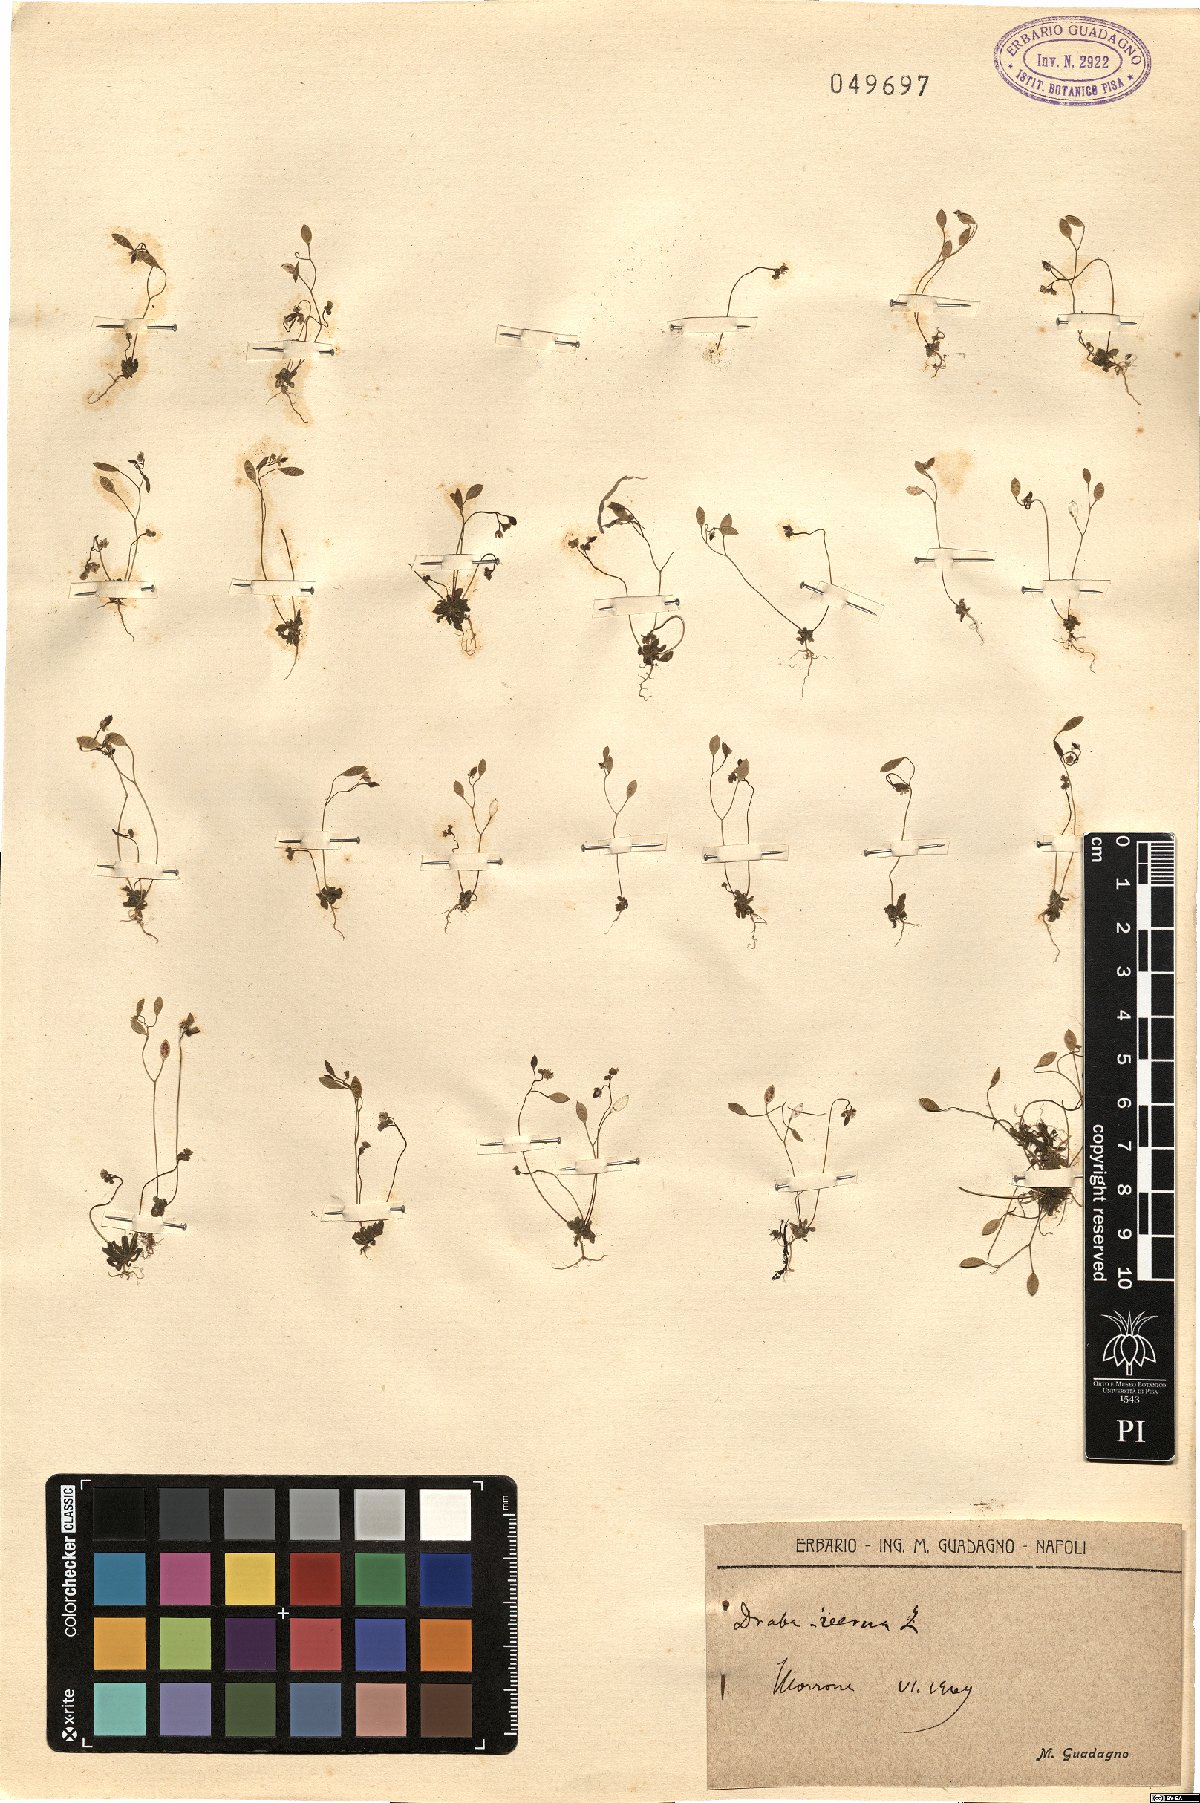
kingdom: Plantae
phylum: Tracheophyta
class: Magnoliopsida
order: Brassicales
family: Brassicaceae
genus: Draba
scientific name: Draba verna
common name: Spring draba
